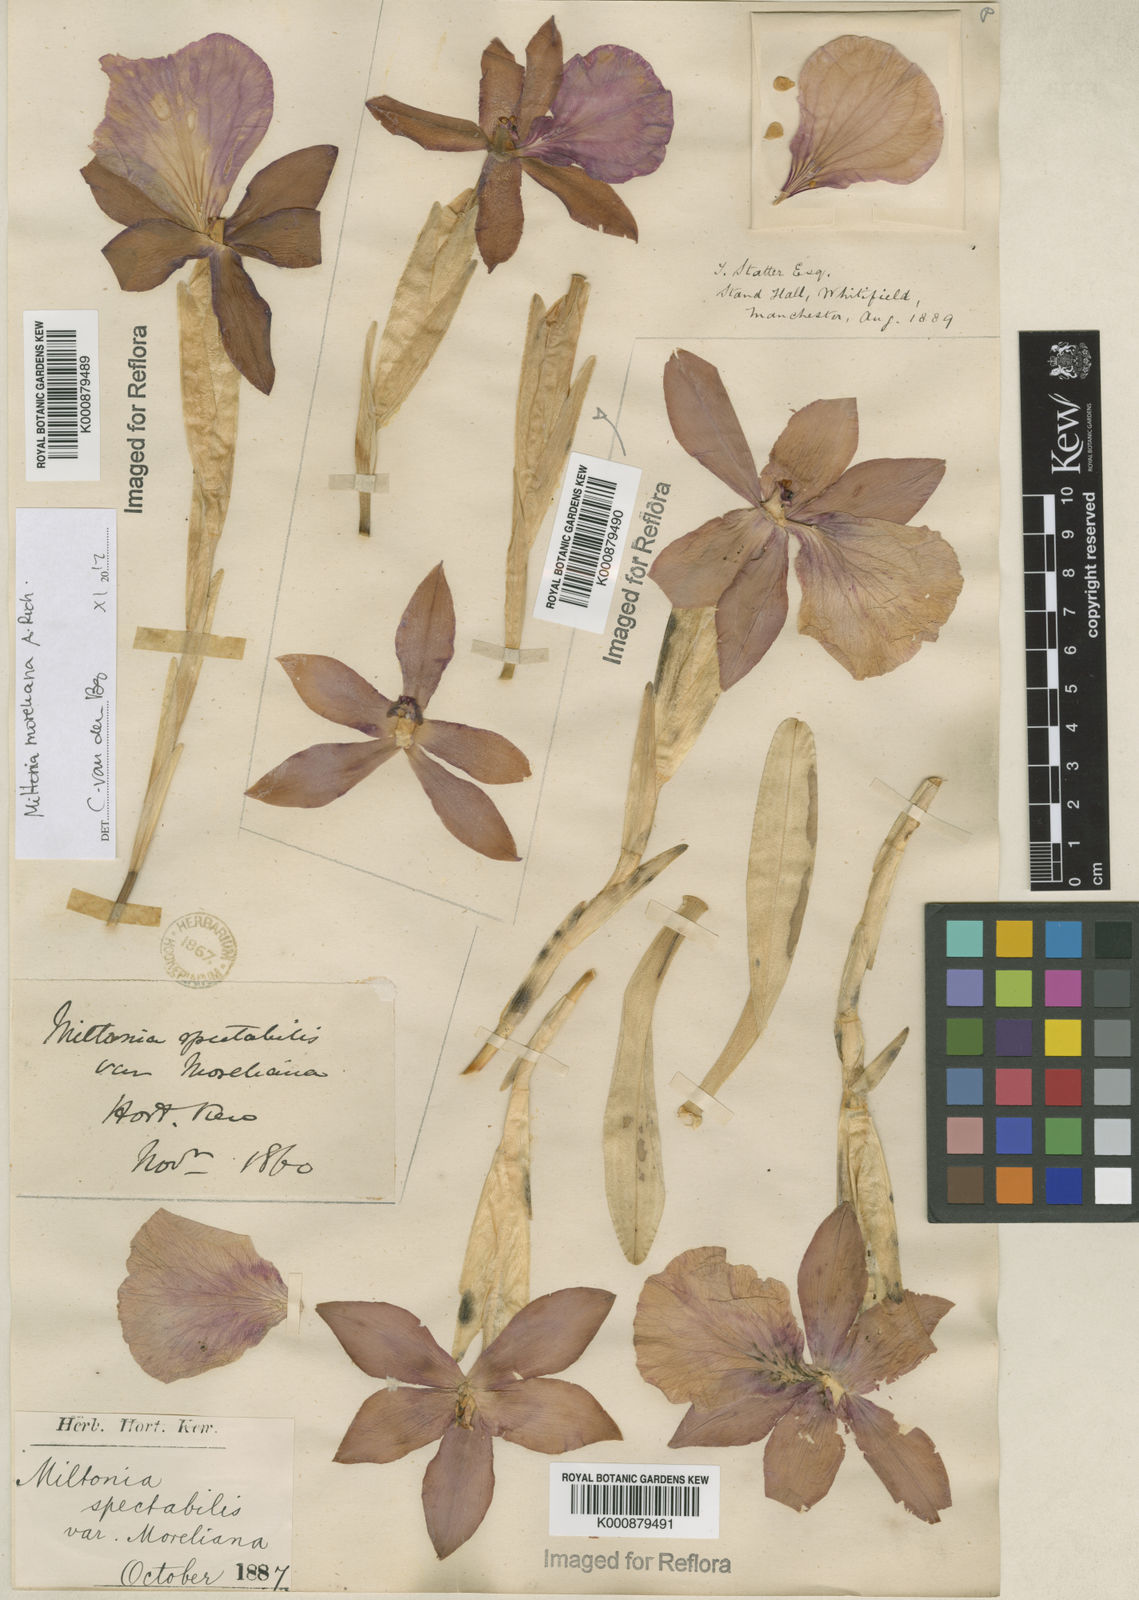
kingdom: Plantae
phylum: Tracheophyta
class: Liliopsida
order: Asparagales
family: Orchidaceae
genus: Miltonia
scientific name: Miltonia moreliana
